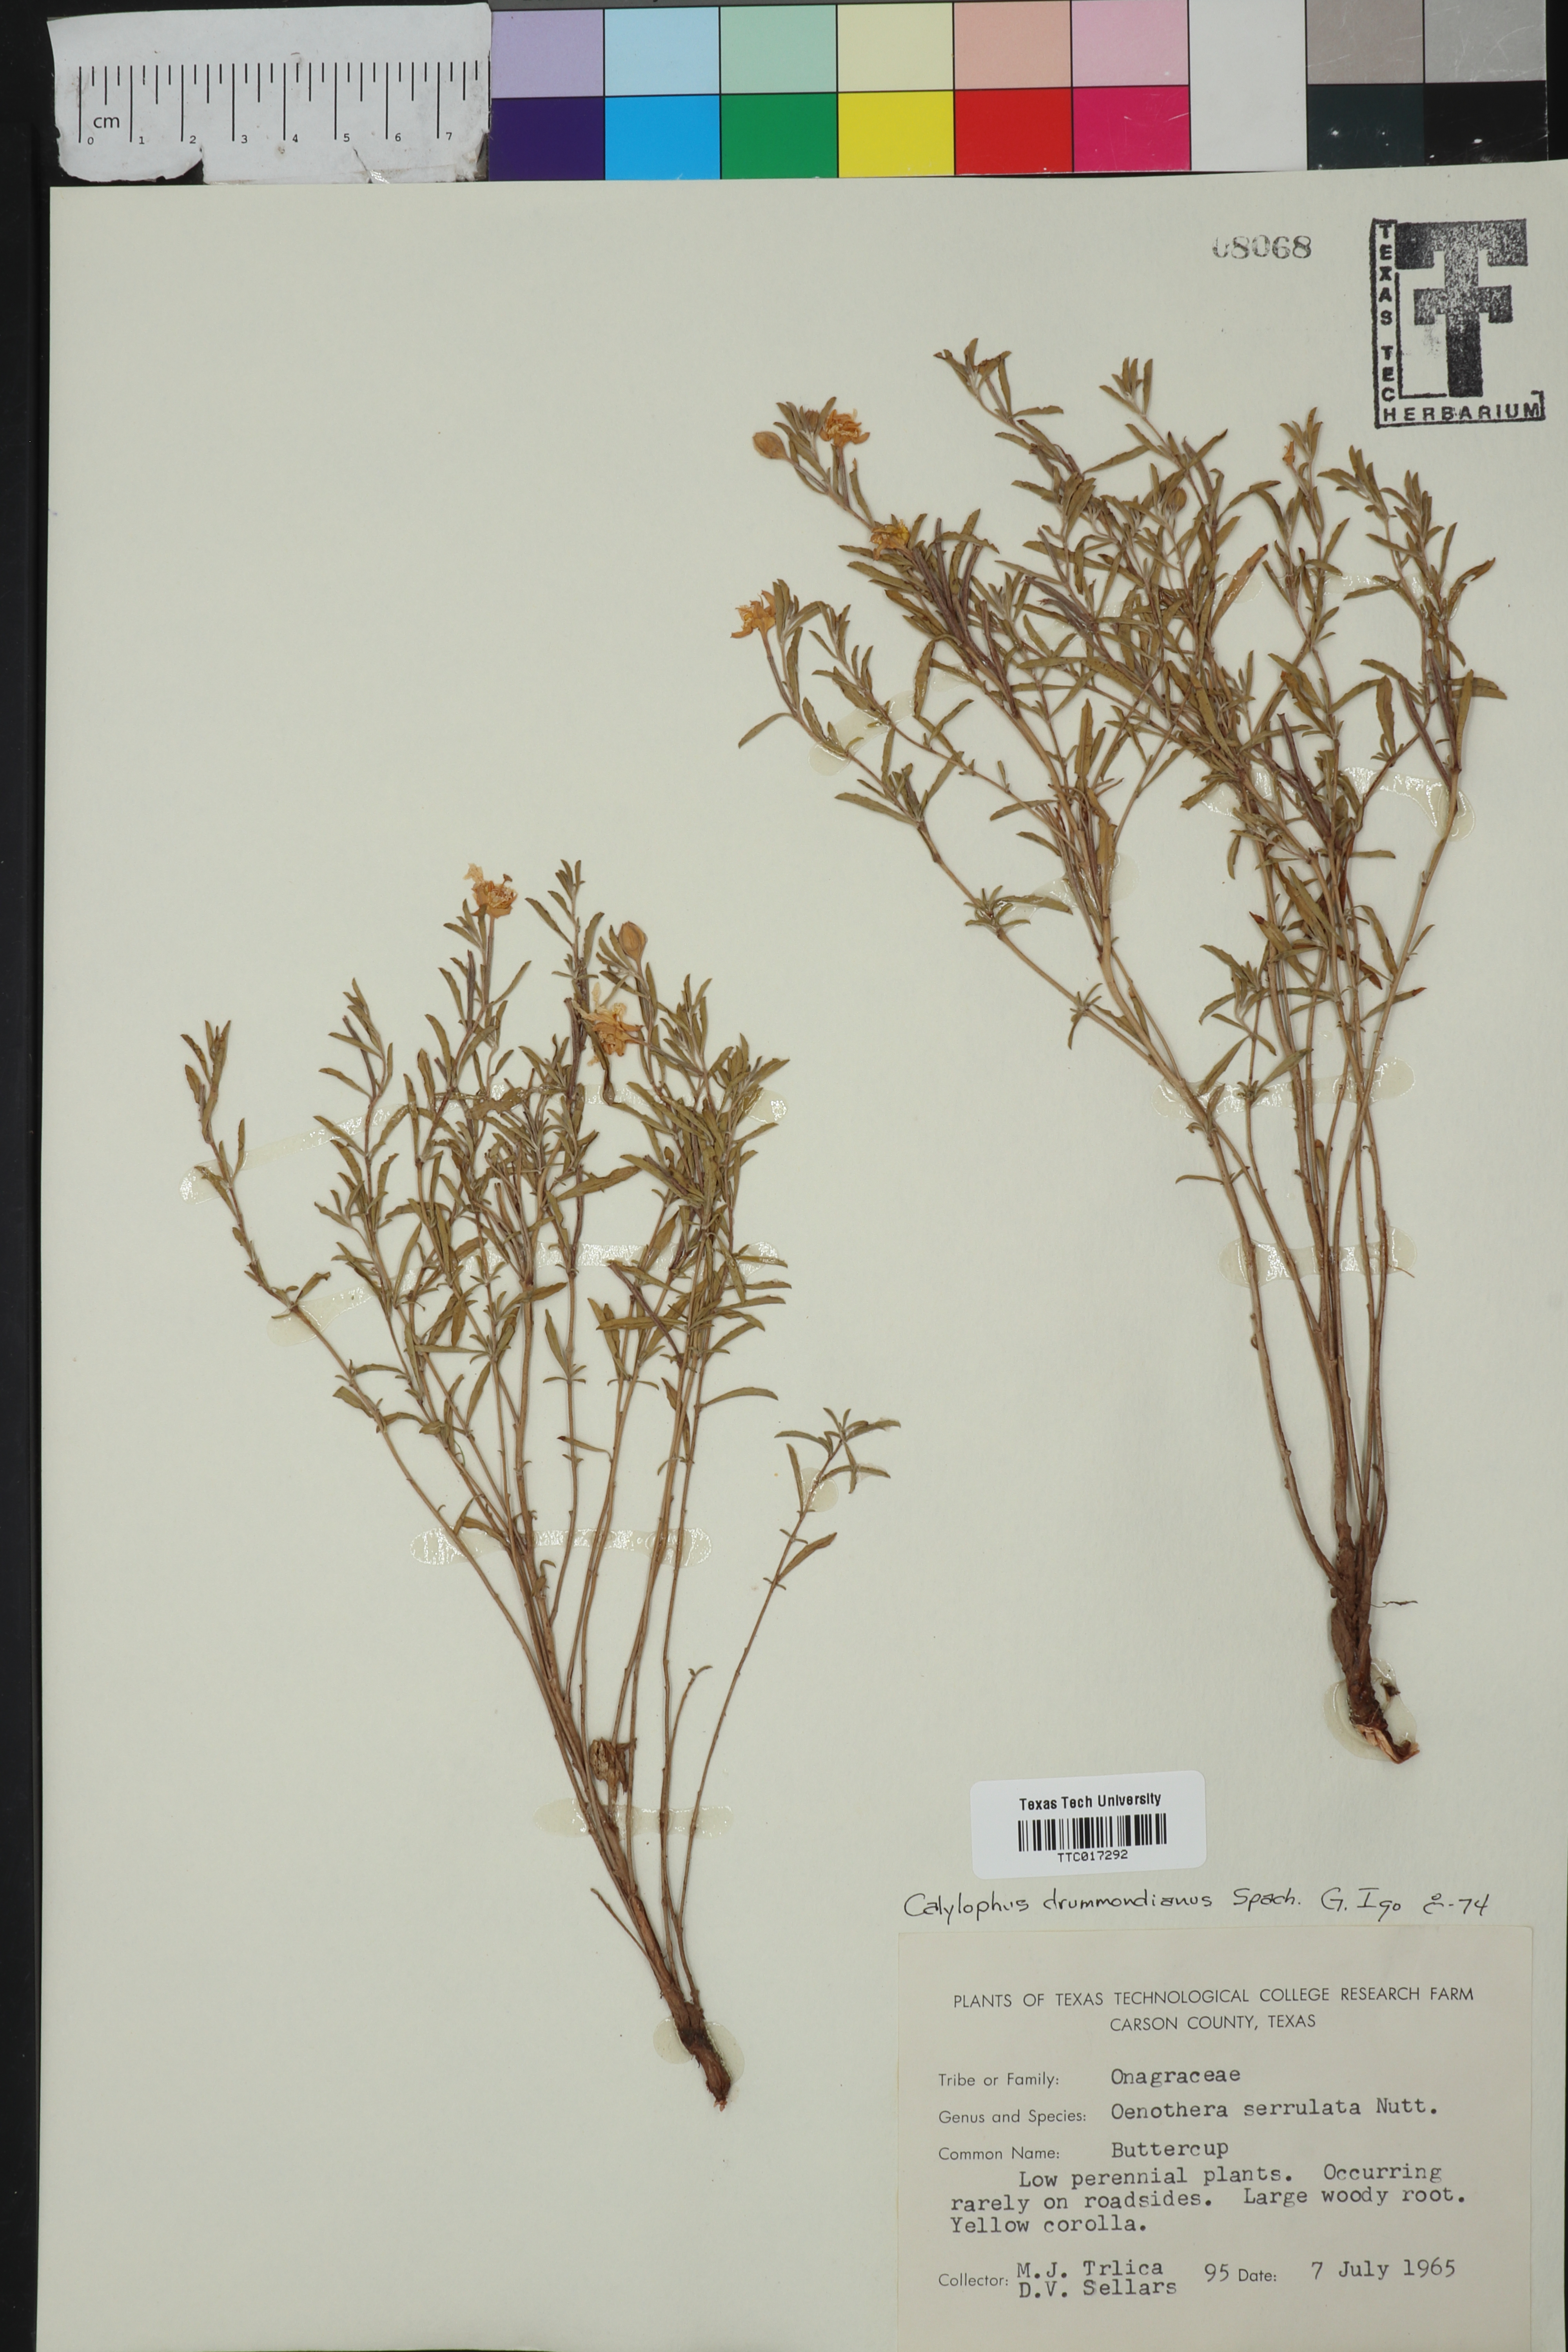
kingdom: Plantae
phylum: Tracheophyta
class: Magnoliopsida
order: Myrtales
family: Onagraceae
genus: Oenothera
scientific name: Oenothera serrulata
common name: Half-shrub calylophus
